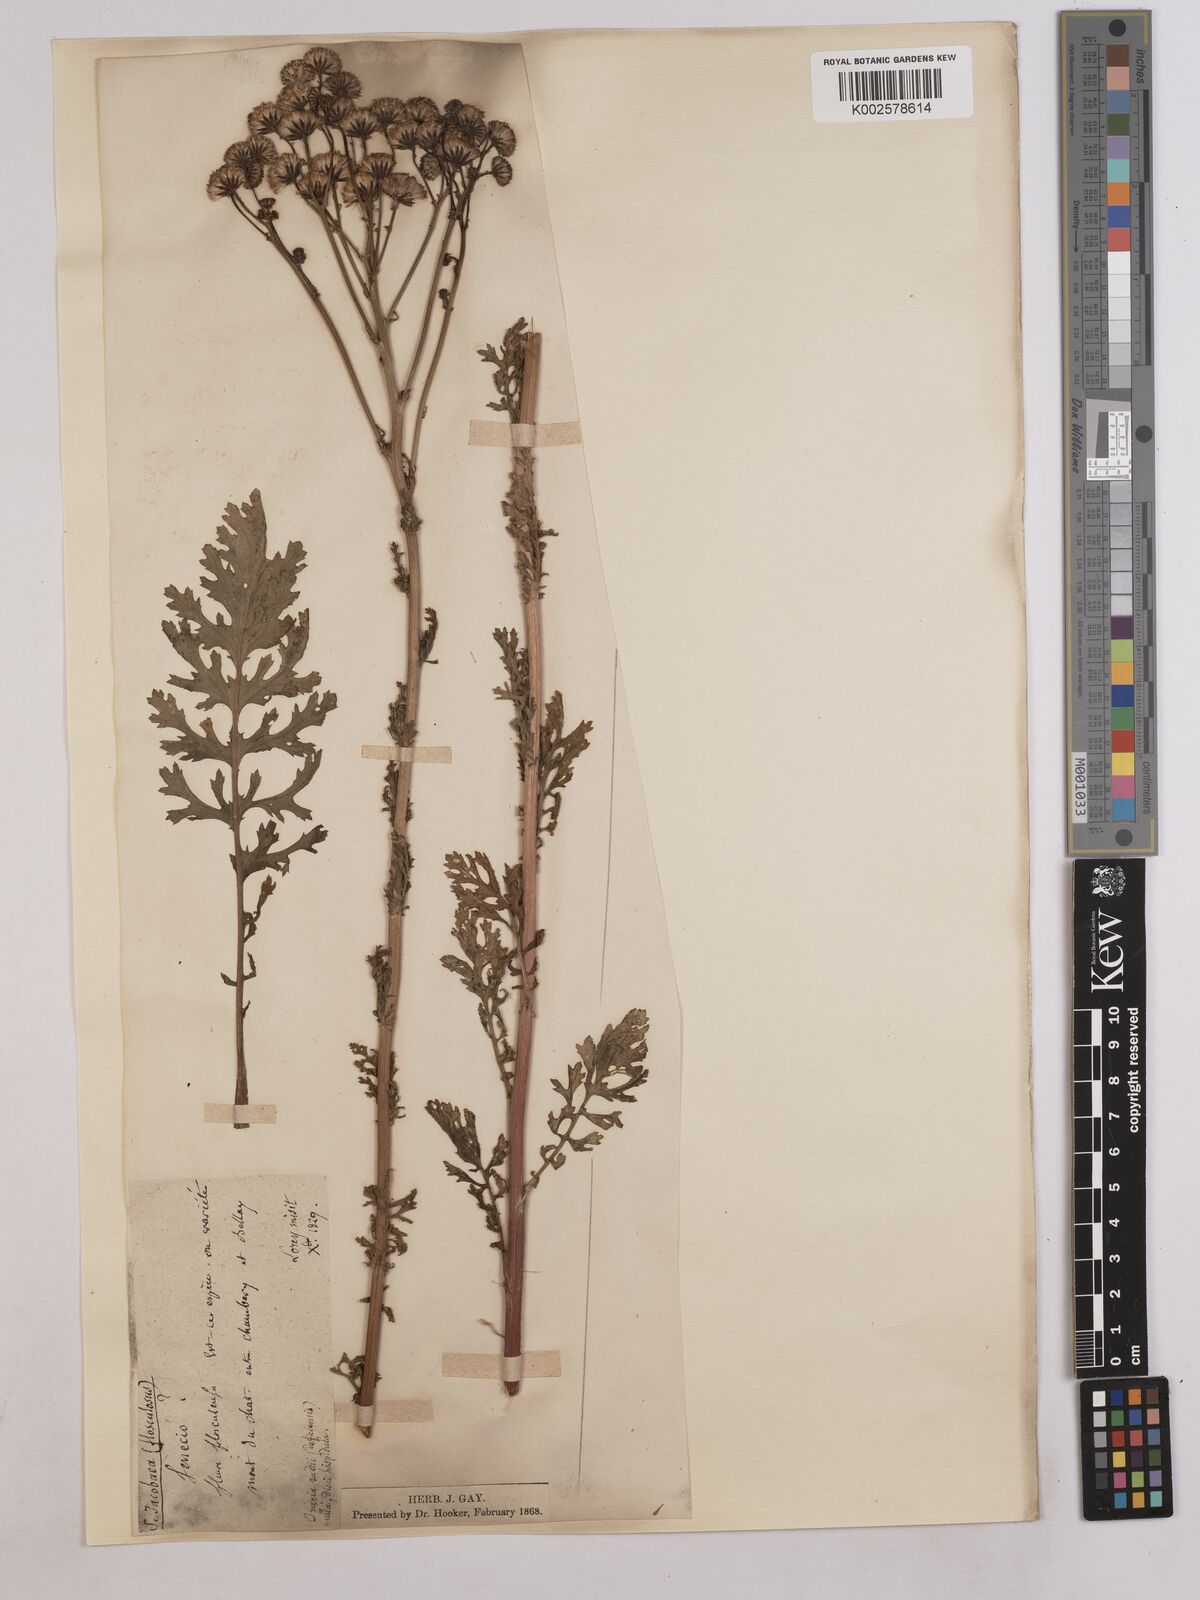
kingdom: Plantae
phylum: Tracheophyta
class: Magnoliopsida
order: Asterales
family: Asteraceae
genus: Jacobaea
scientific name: Jacobaea vulgaris
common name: Stinking willie
